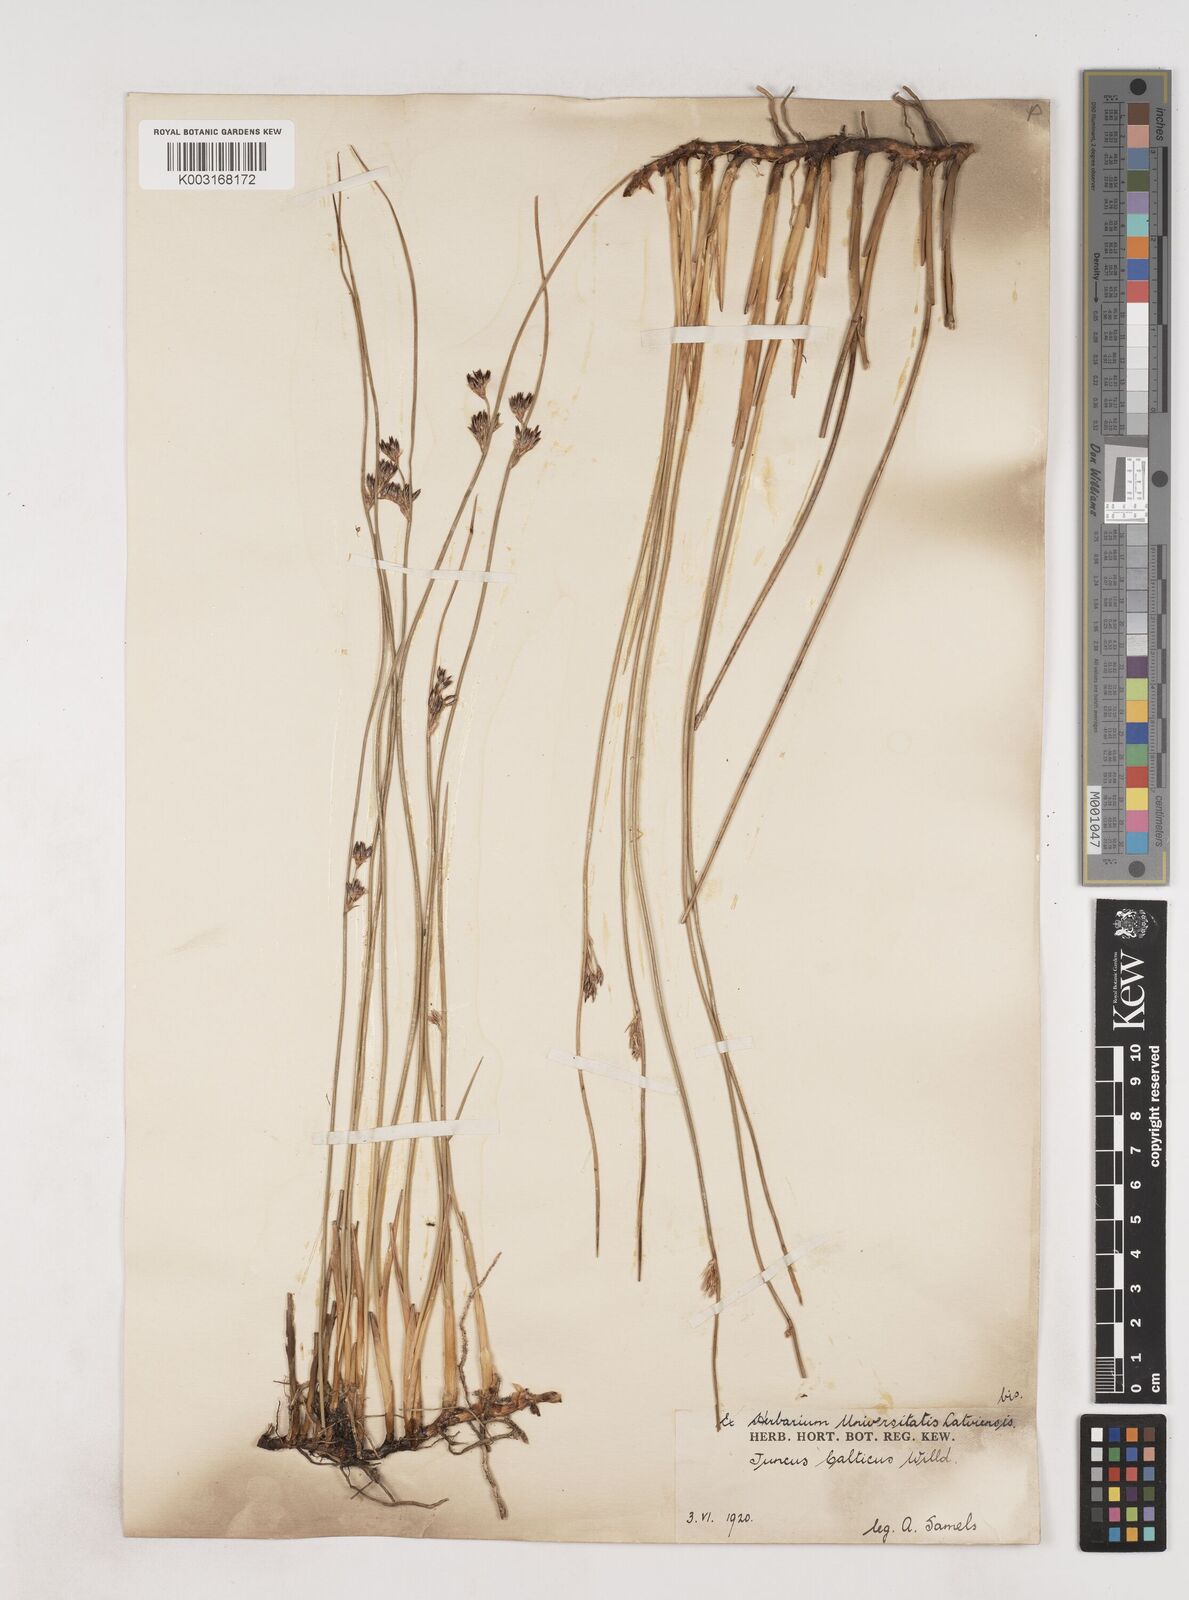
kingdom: Plantae
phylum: Tracheophyta
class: Liliopsida
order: Poales
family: Juncaceae
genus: Juncus
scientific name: Juncus balticus
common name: Baltic rush
